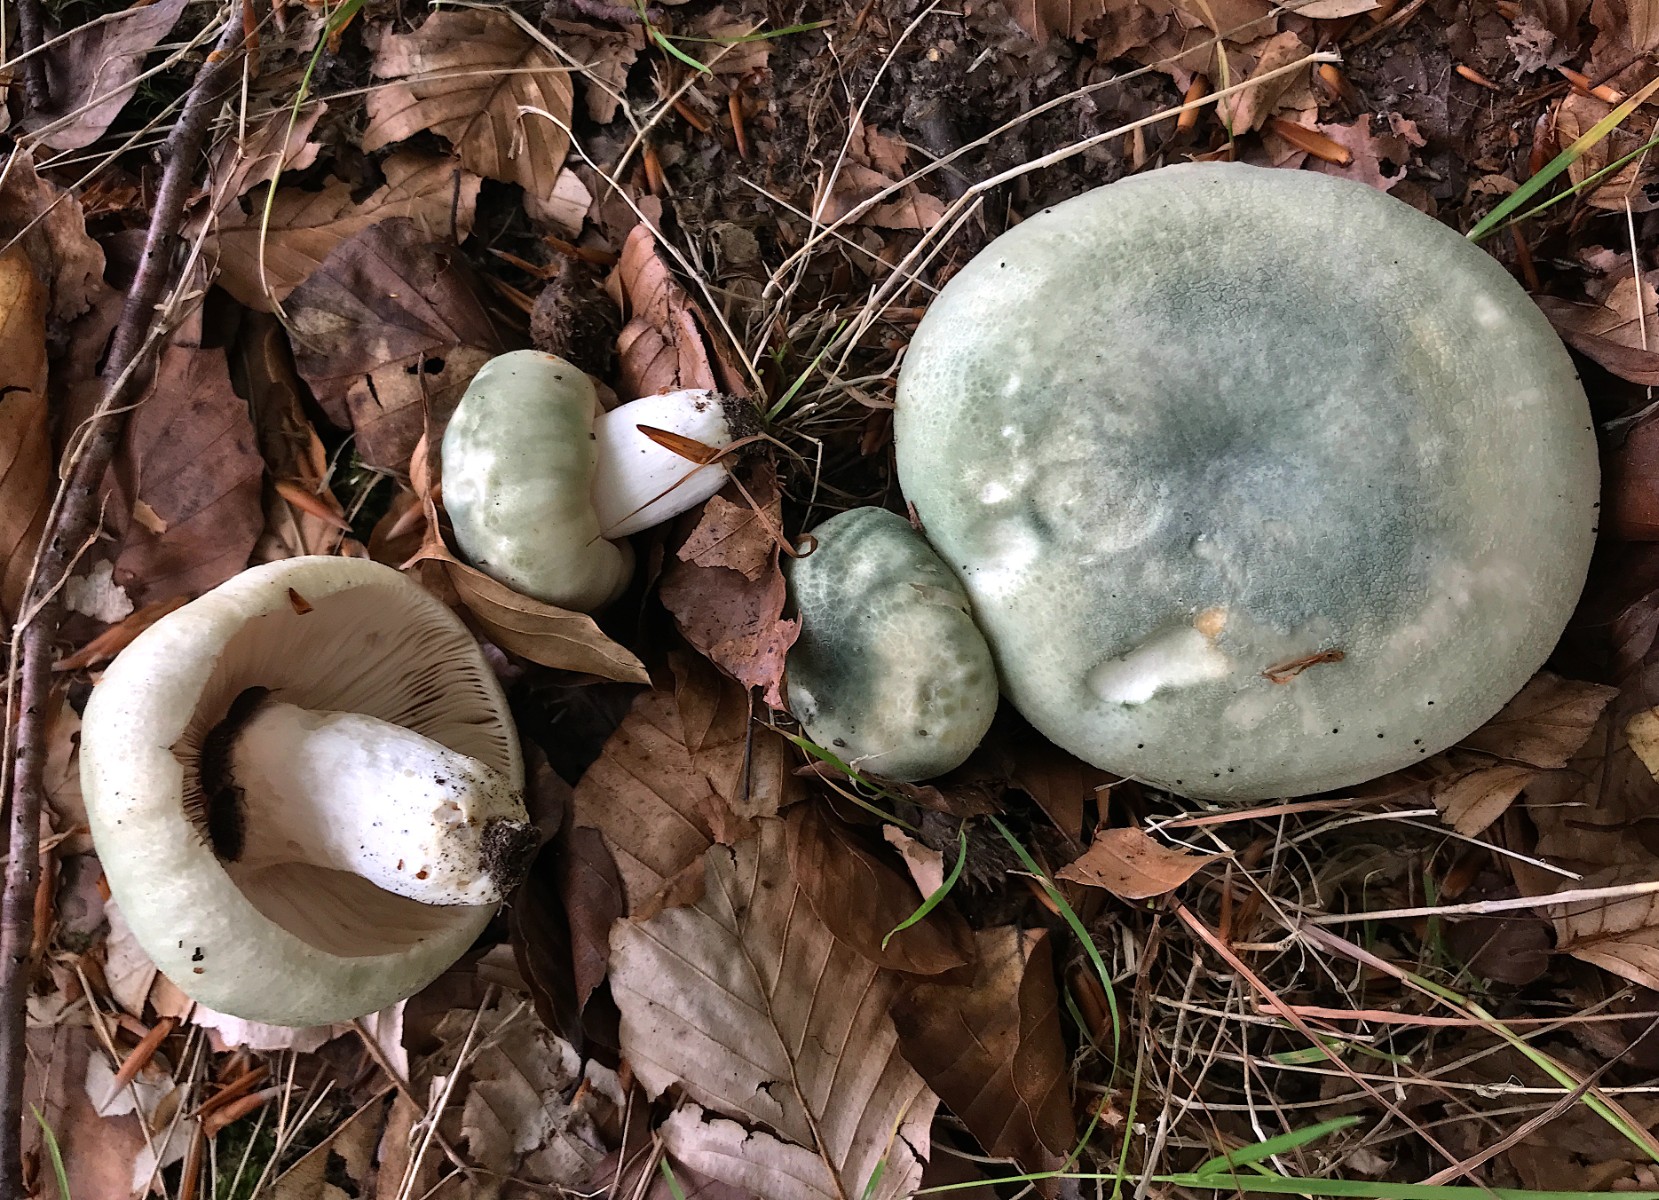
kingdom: Fungi
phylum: Basidiomycota
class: Agaricomycetes
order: Russulales
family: Russulaceae
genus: Russula
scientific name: Russula virescens
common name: spanskgrøn skørhat
